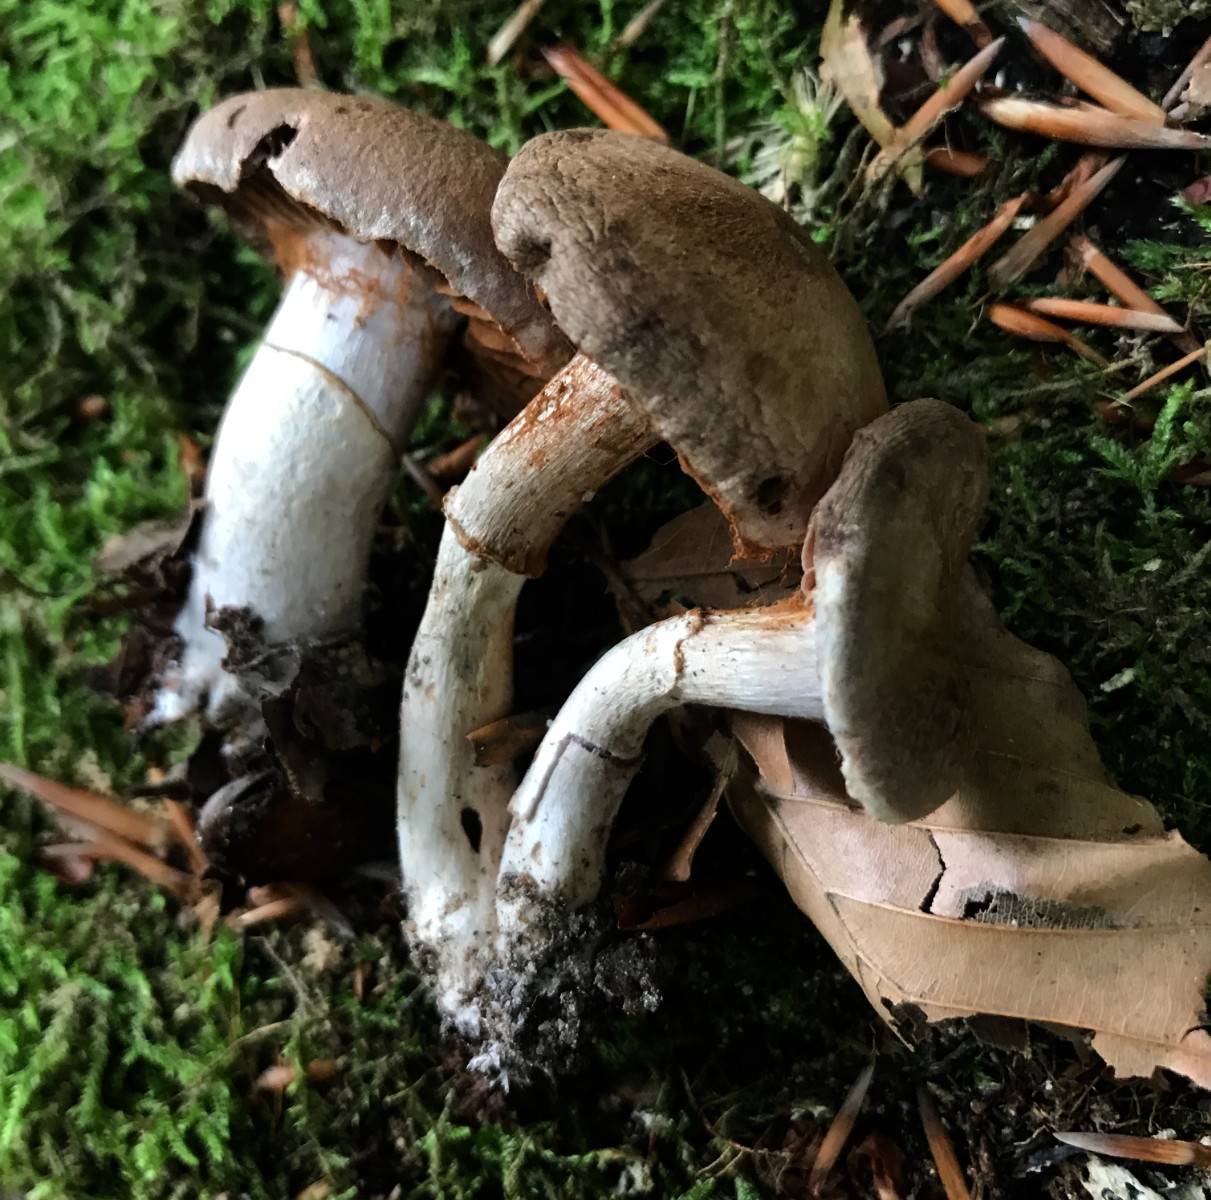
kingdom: Fungi
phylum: Basidiomycota
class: Agaricomycetes
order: Agaricales
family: Cortinariaceae
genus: Cortinarius
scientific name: Cortinarius torvus
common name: champignonagtig slørhat
